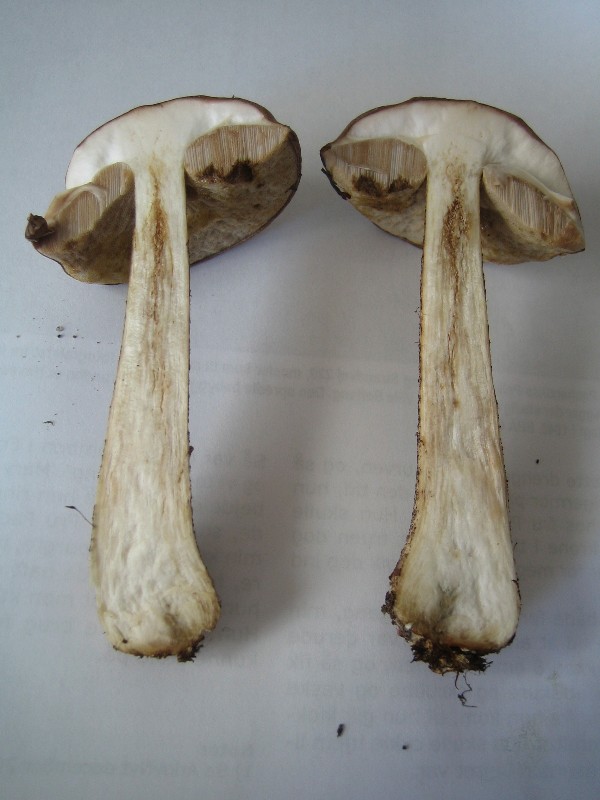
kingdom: Fungi
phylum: Basidiomycota
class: Agaricomycetes
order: Boletales
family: Boletaceae
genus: Leccinum
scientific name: Leccinum scabrum
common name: brun skælrørhat
